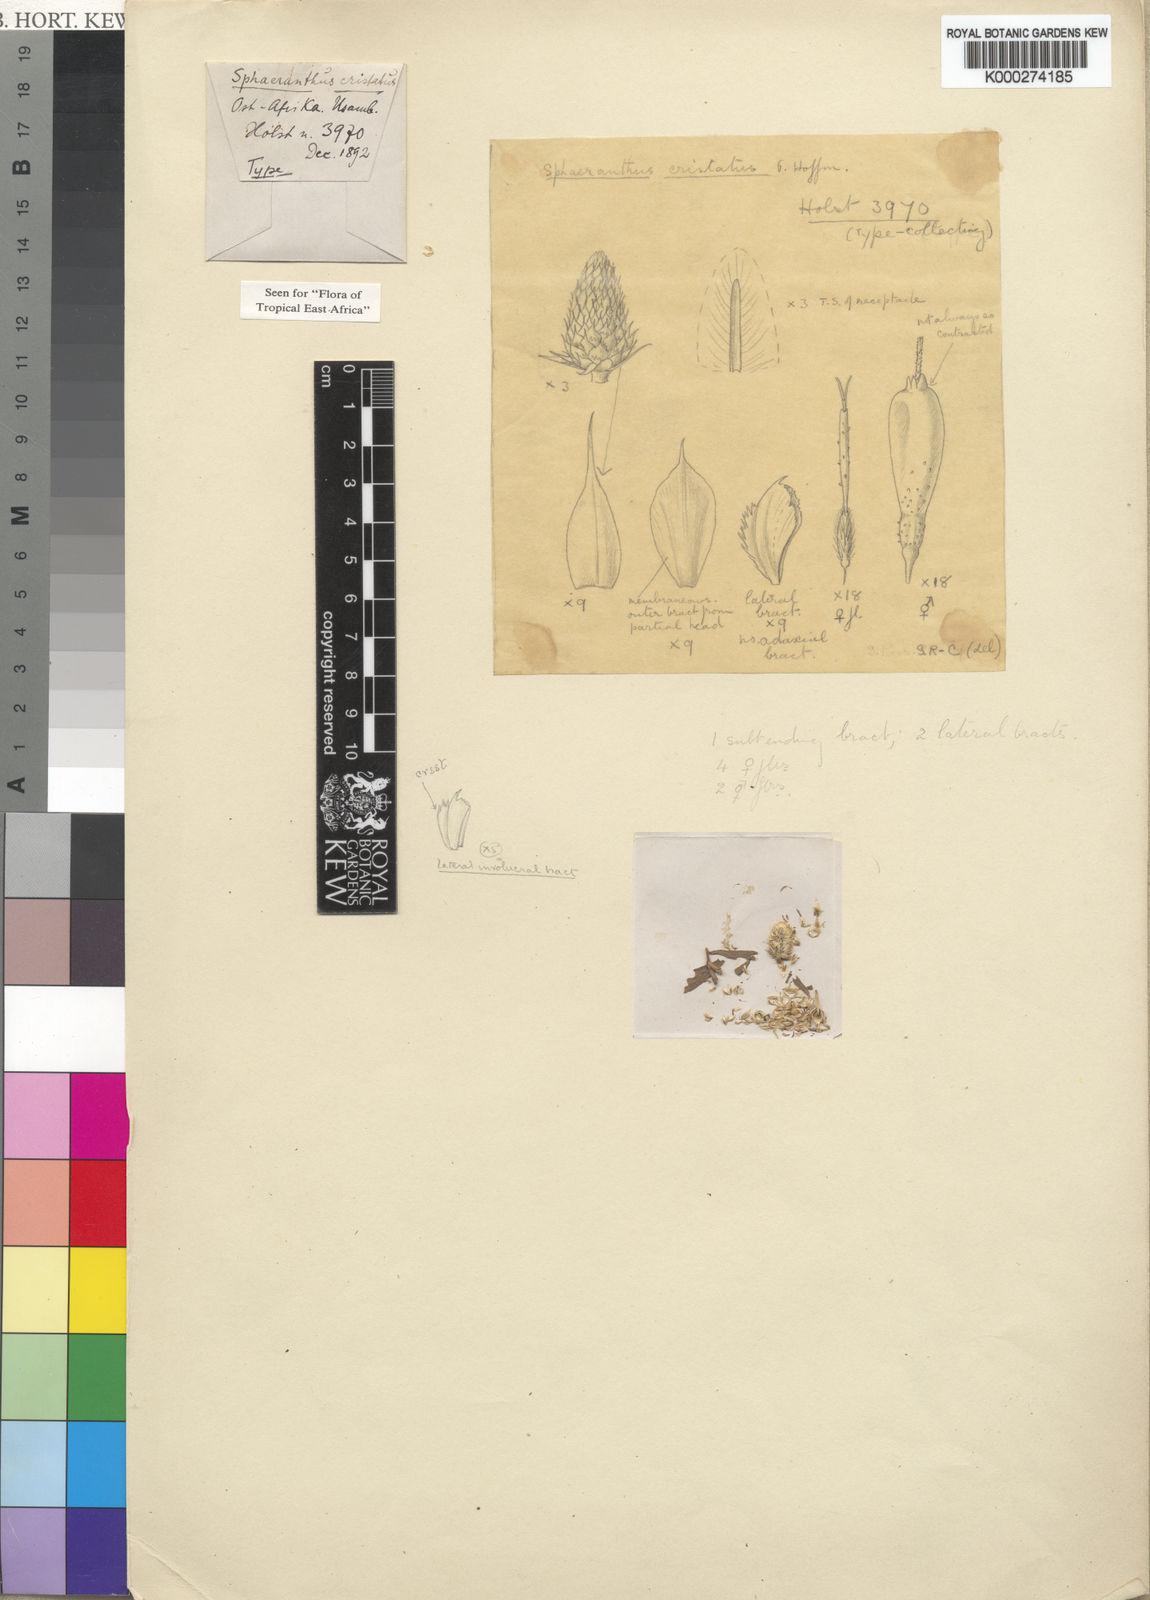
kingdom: Plantae
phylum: Tracheophyta
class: Magnoliopsida
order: Asterales
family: Asteraceae
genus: Sphaeranthus
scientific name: Sphaeranthus cristatus
